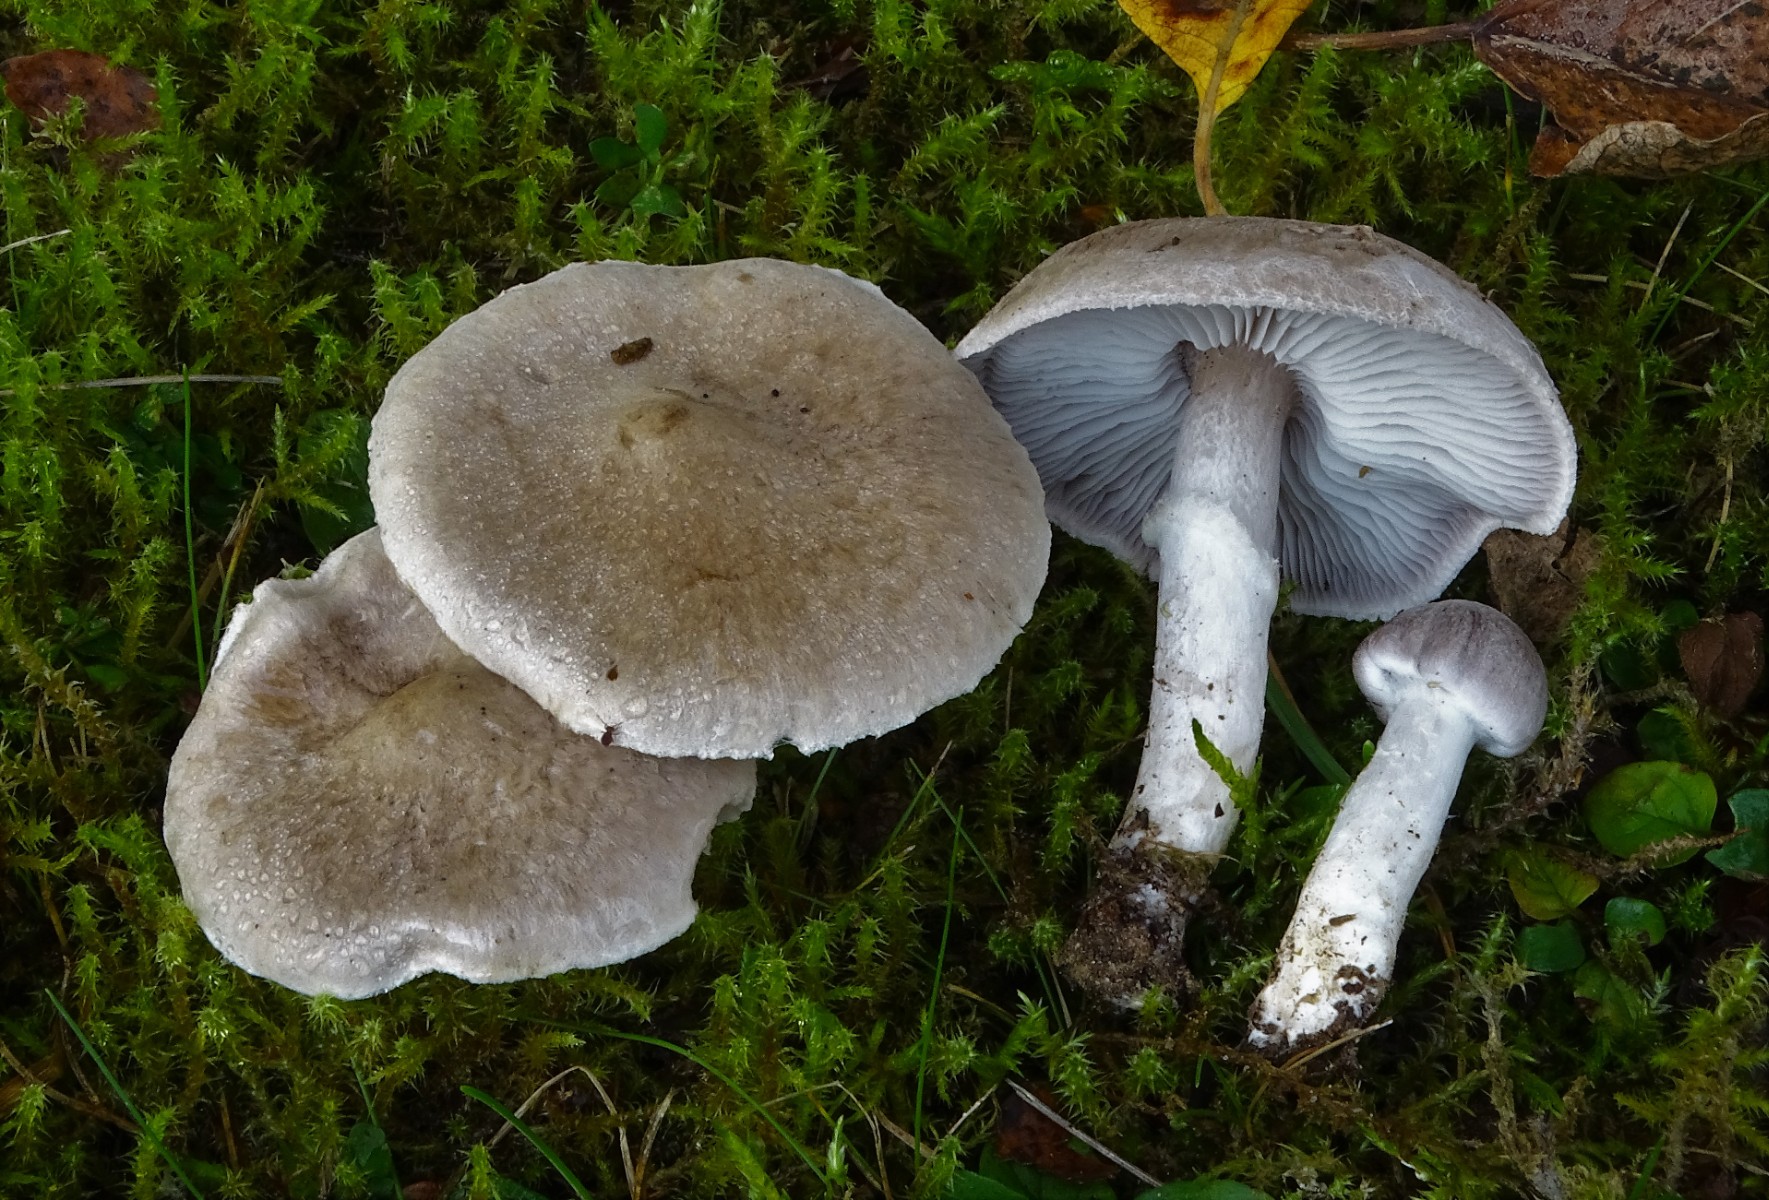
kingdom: Fungi
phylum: Basidiomycota
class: Agaricomycetes
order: Agaricales
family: Tricholomataceae
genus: Tricholoma
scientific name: Tricholoma cingulatum
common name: ring-ridderhat
